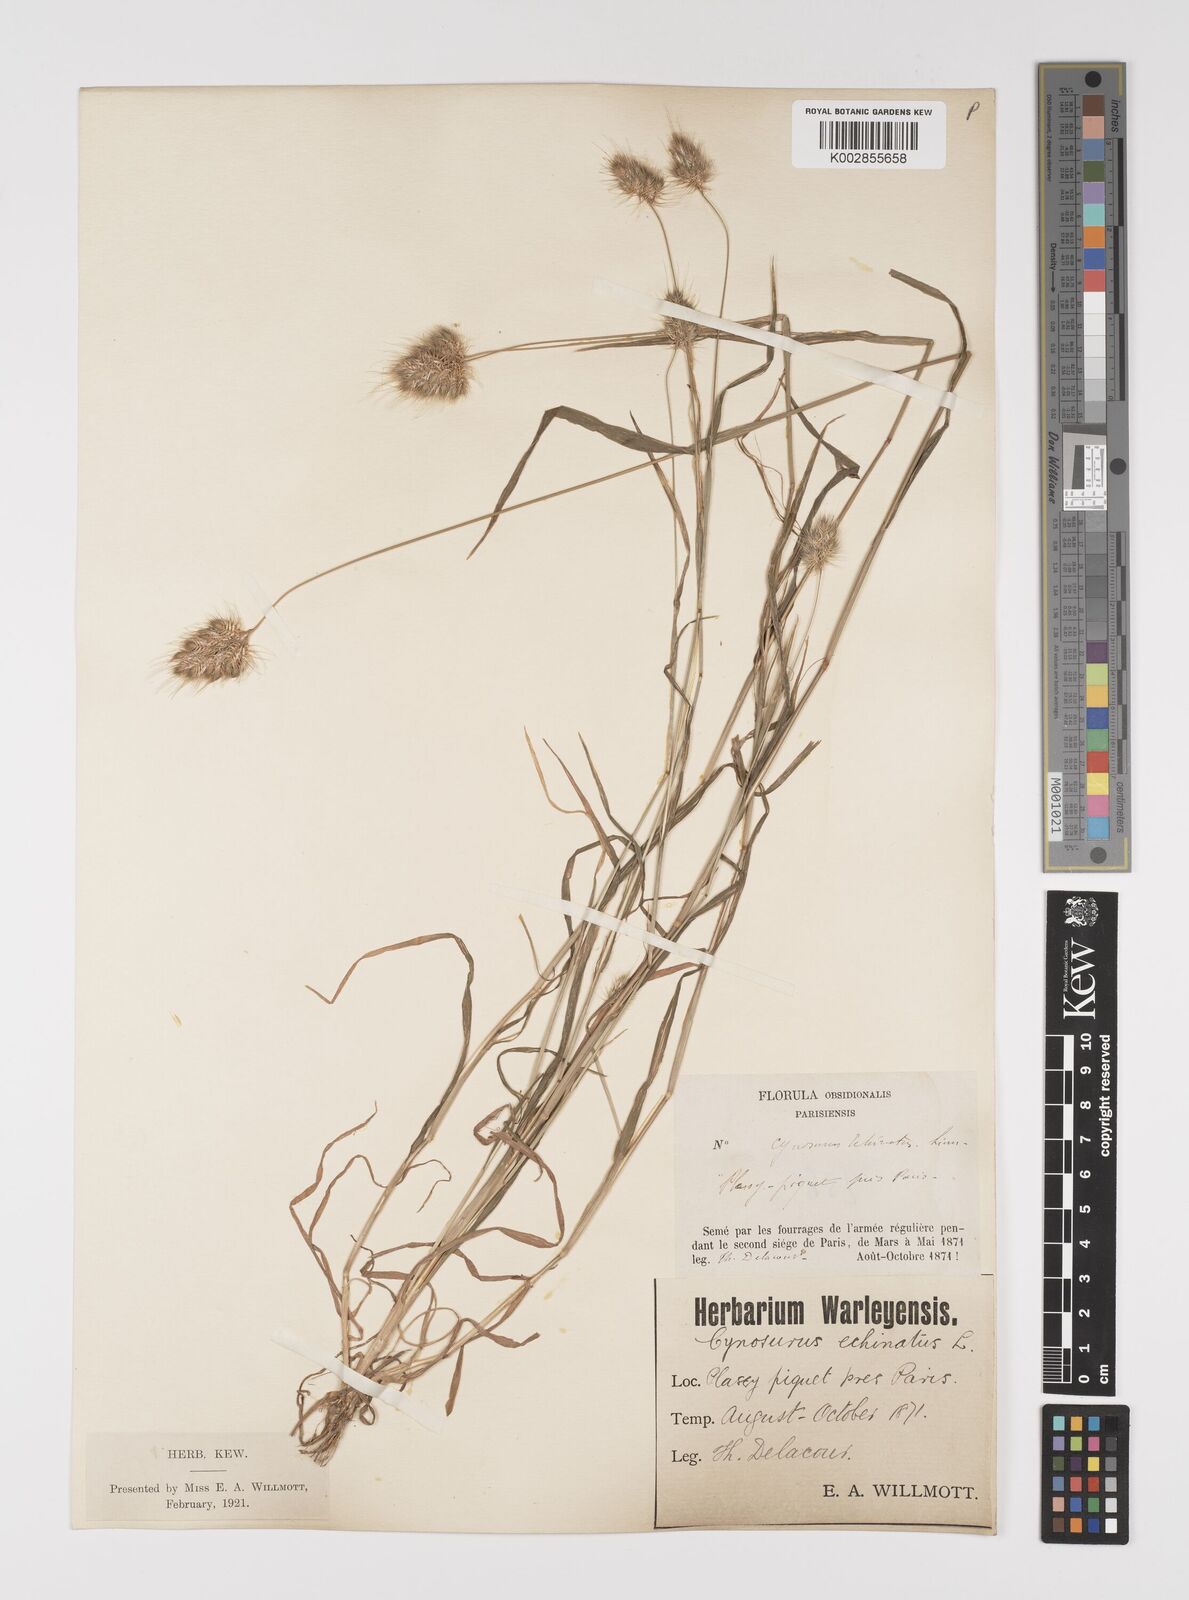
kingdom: Plantae
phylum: Tracheophyta
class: Liliopsida
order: Poales
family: Poaceae
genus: Cynosurus
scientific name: Cynosurus echinatus
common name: Rough dog's-tail
